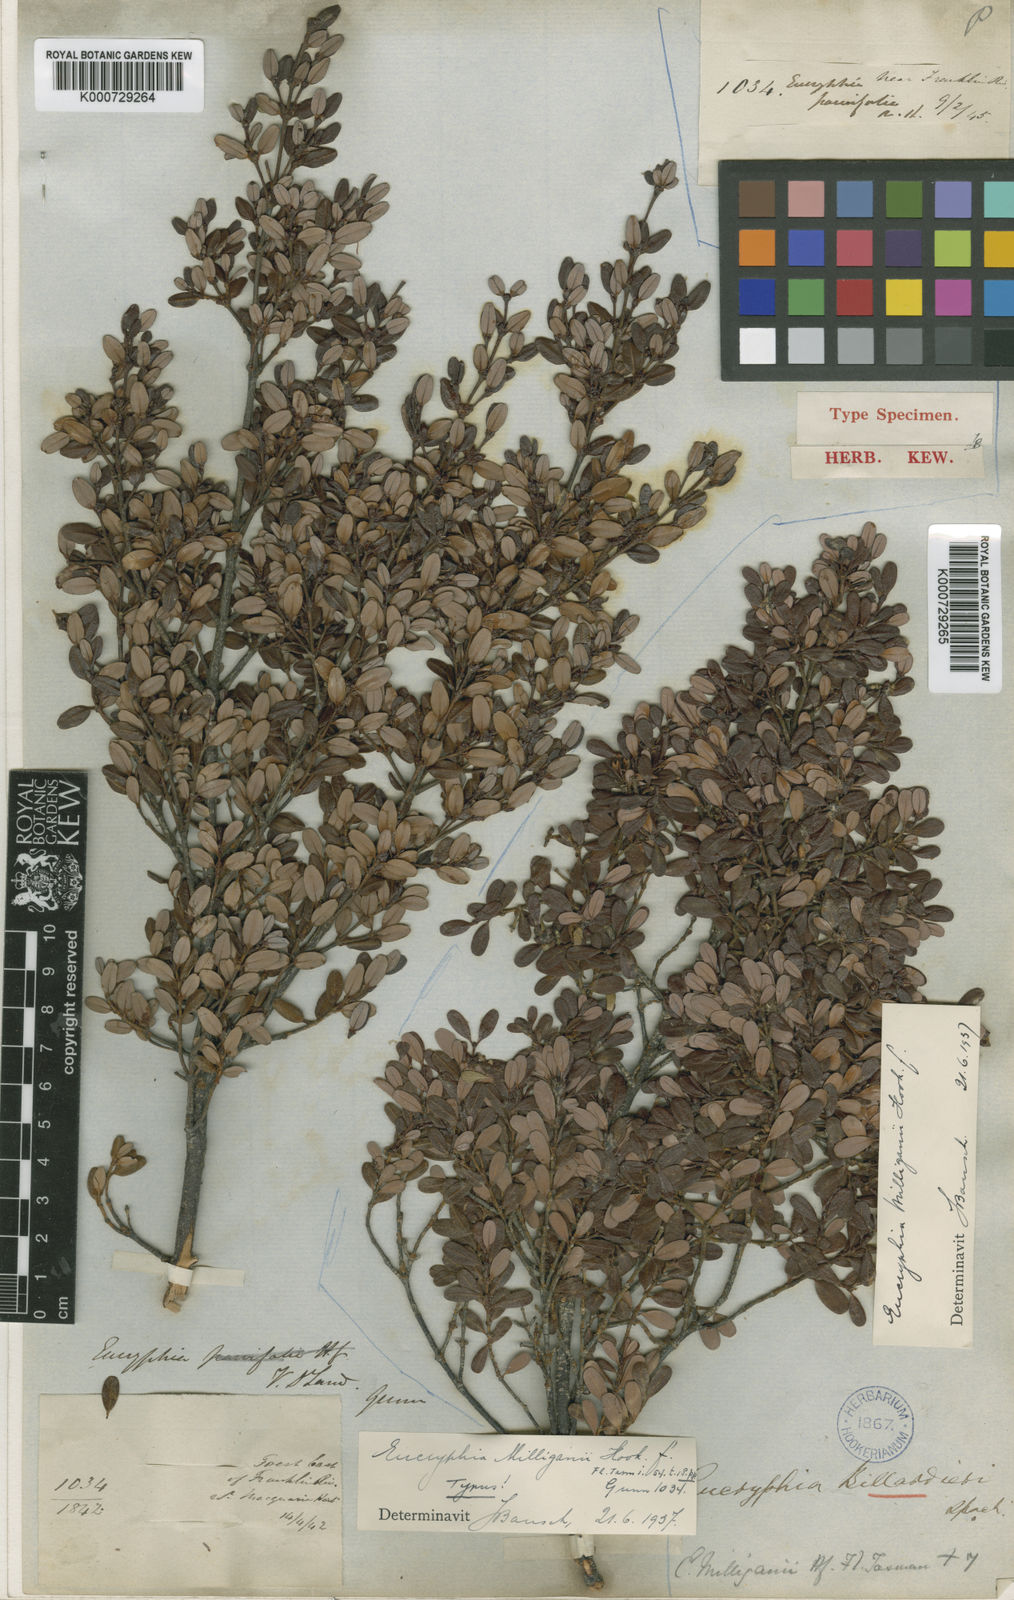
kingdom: Plantae
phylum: Tracheophyta
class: Magnoliopsida
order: Oxalidales
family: Cunoniaceae
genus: Eucryphia
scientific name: Eucryphia milliganii
